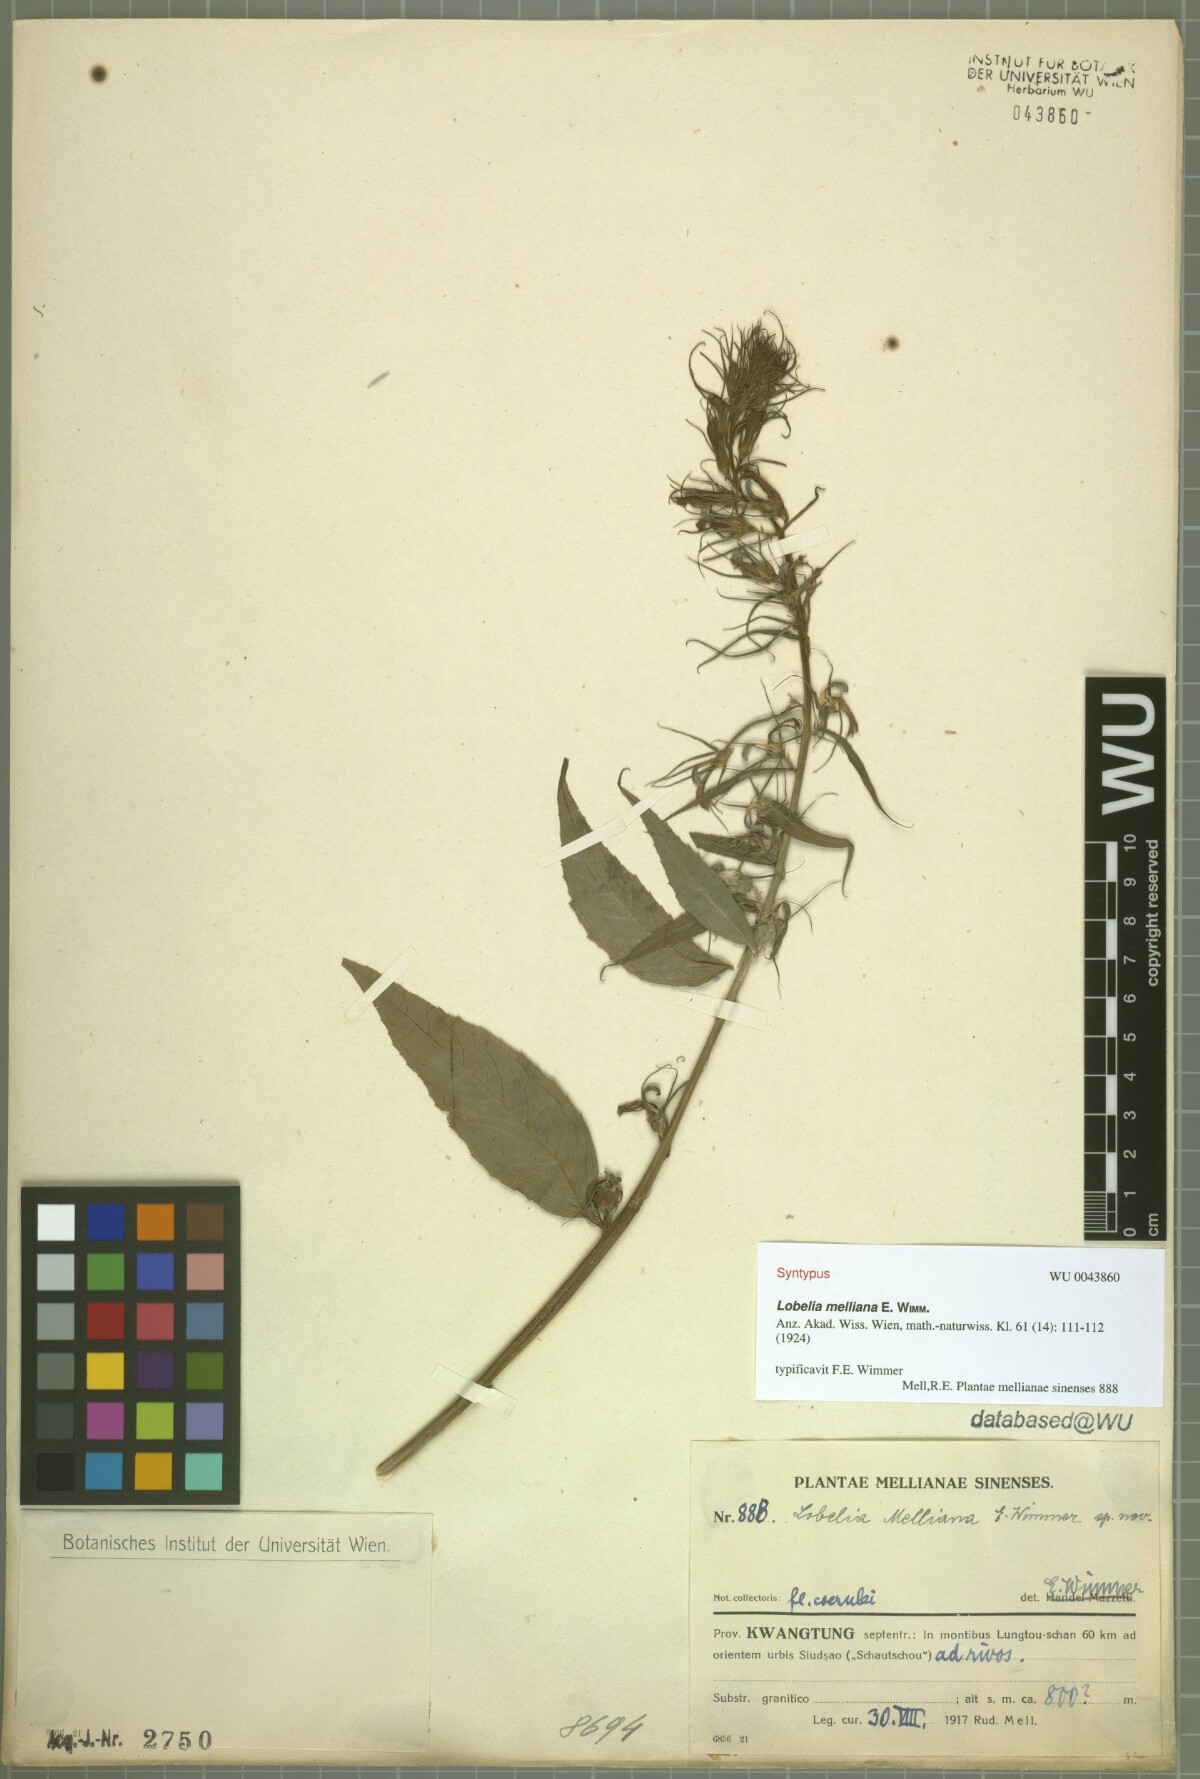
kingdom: Plantae
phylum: Tracheophyta
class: Magnoliopsida
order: Asterales
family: Campanulaceae
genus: Lobelia
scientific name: Lobelia melliana
